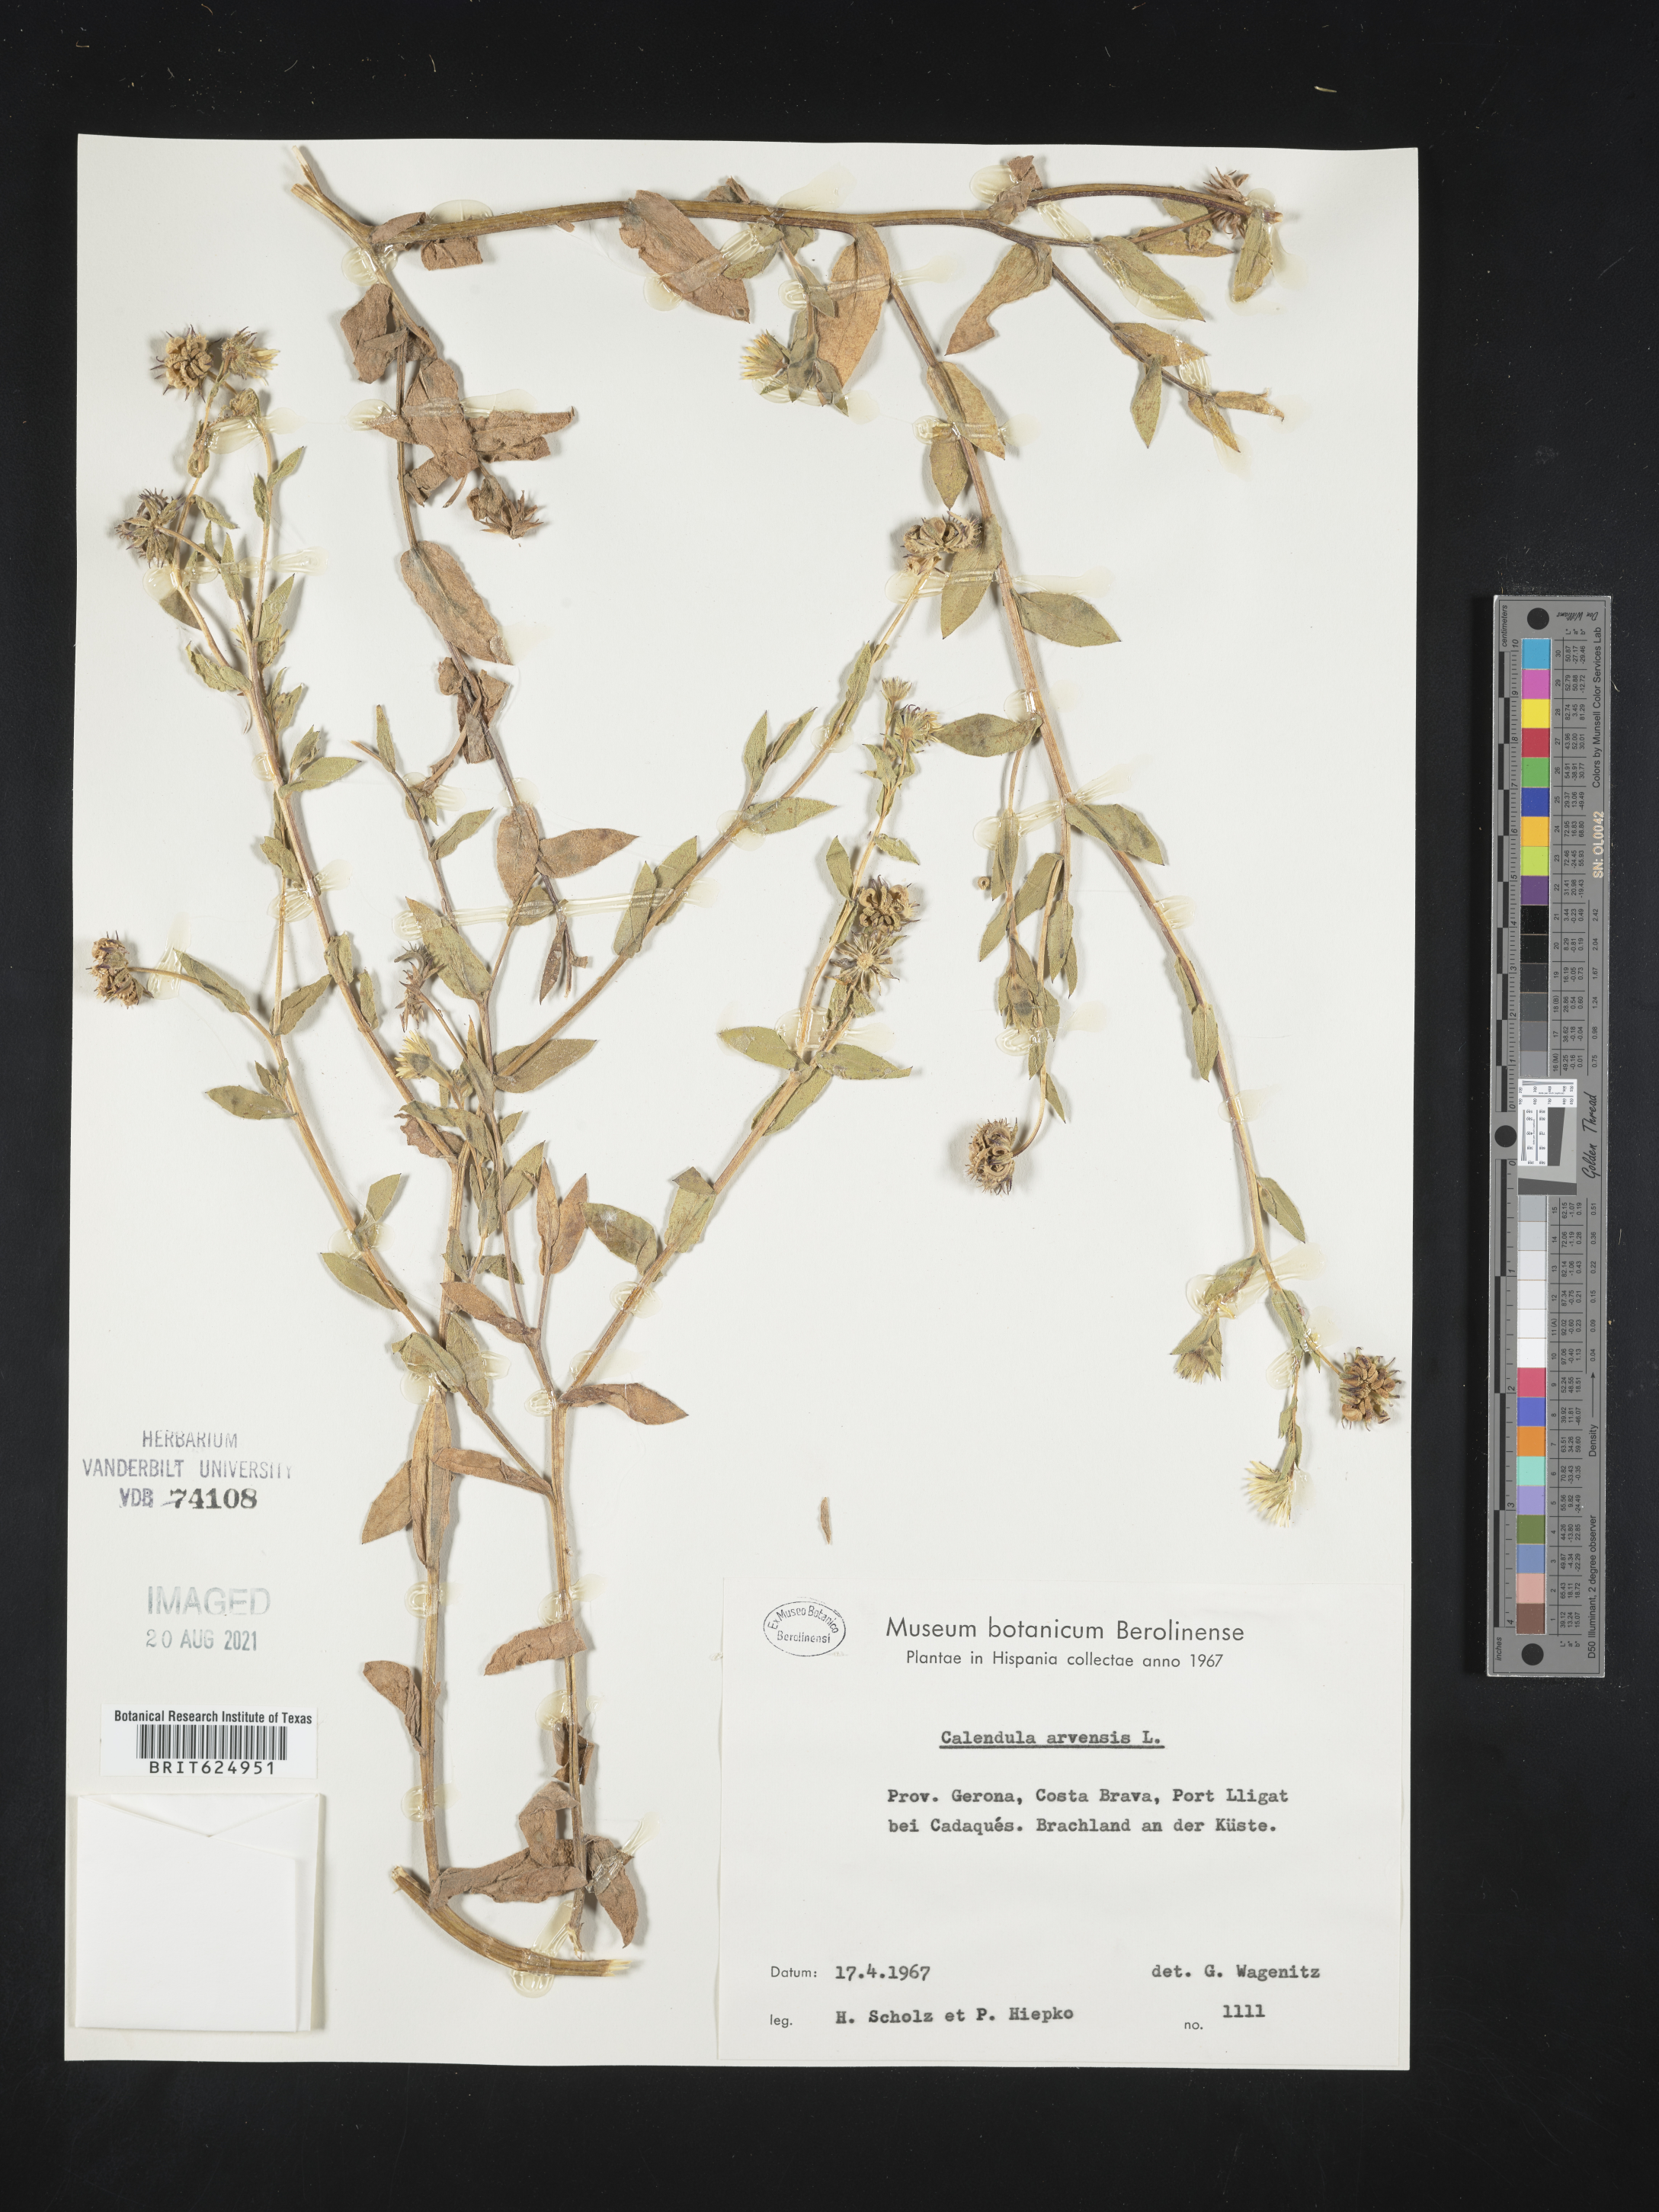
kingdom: Plantae
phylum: Tracheophyta
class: Magnoliopsida
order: Asterales
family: Asteraceae
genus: Calendula
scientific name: Calendula arvensis
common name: Field marigold
